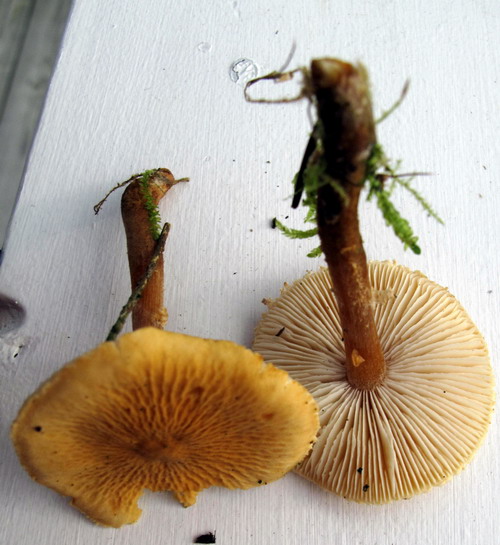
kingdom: Fungi
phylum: Basidiomycota
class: Agaricomycetes
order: Agaricales
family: Tricholomataceae
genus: Cystoderma
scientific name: Cystoderma amianthinum
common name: okkergul grynhat
